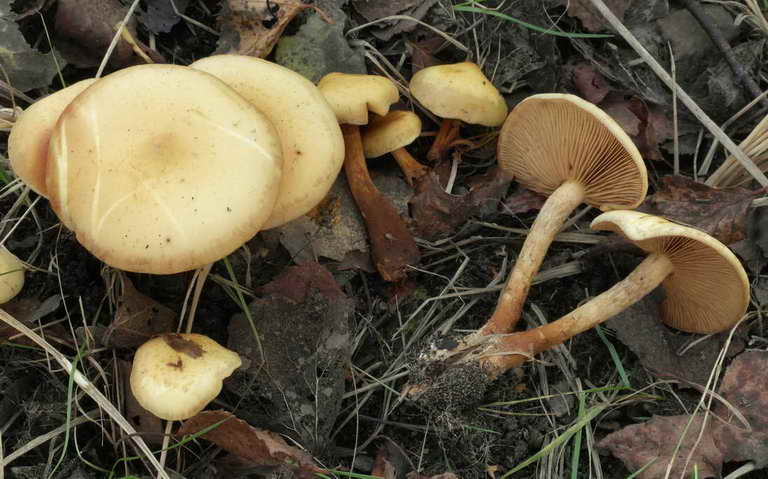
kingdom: Fungi
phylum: Basidiomycota
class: Agaricomycetes
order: Agaricales
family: Strophariaceae
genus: Pholiota
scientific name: Pholiota conissans
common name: pile-skælhat
